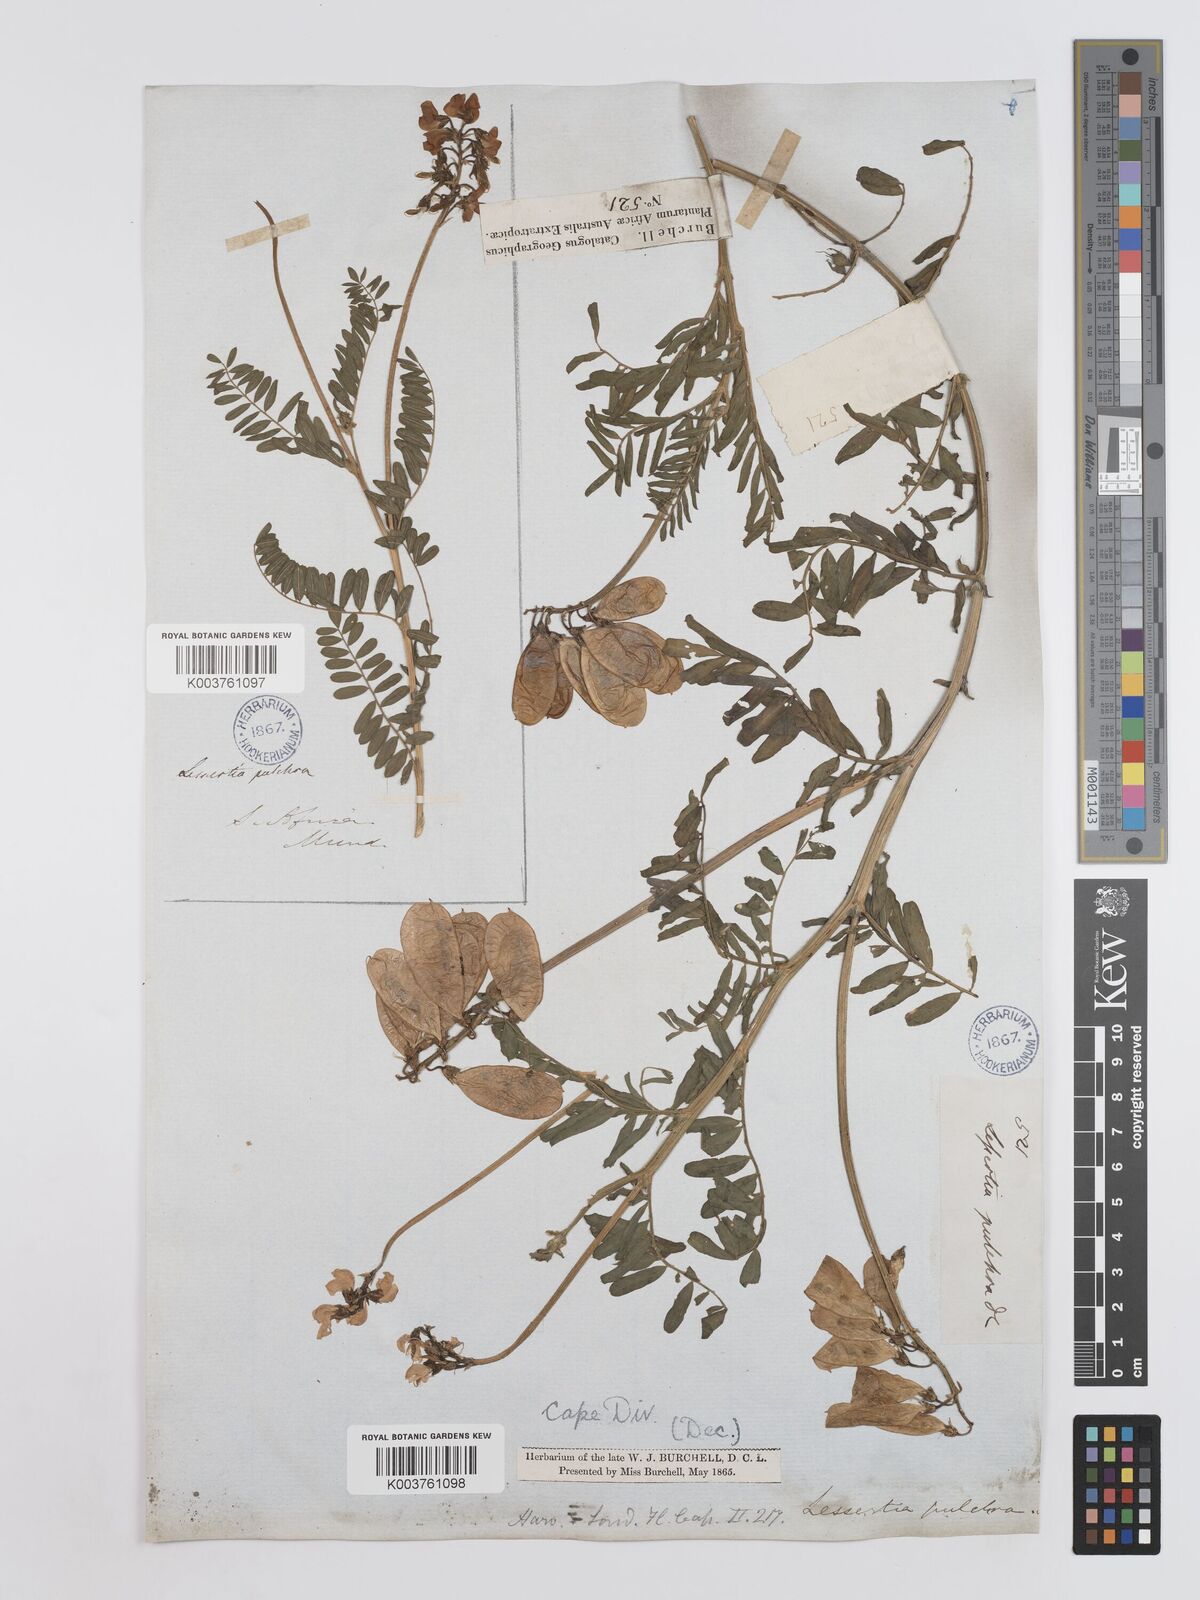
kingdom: Plantae
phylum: Tracheophyta
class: Magnoliopsida
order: Fabales
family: Fabaceae
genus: Lessertia
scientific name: Lessertia capensis
